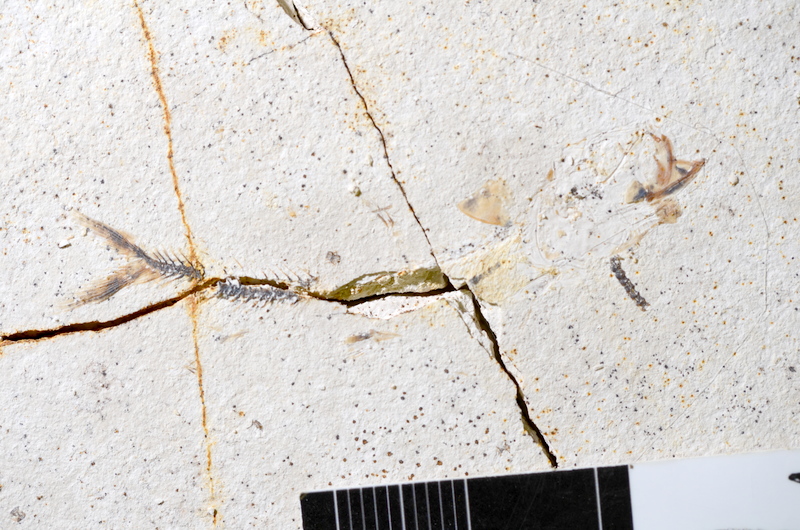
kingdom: Animalia
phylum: Chordata
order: Salmoniformes
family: Orthogonikleithridae
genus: Orthogonikleithrus
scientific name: Orthogonikleithrus hoelli
